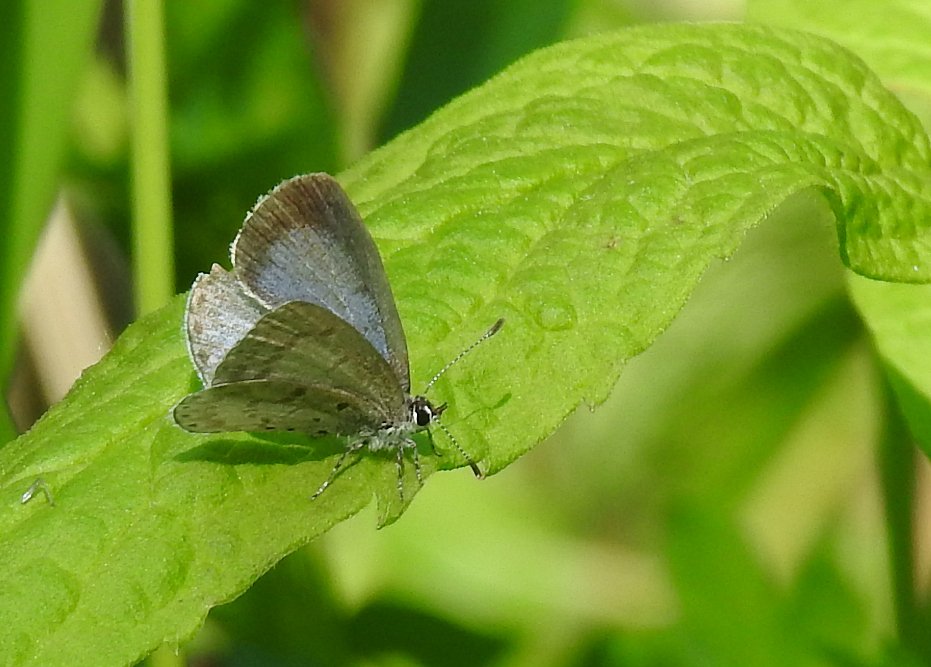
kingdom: Animalia
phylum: Arthropoda
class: Insecta
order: Lepidoptera
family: Lycaenidae
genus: Celastrina
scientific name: Celastrina
